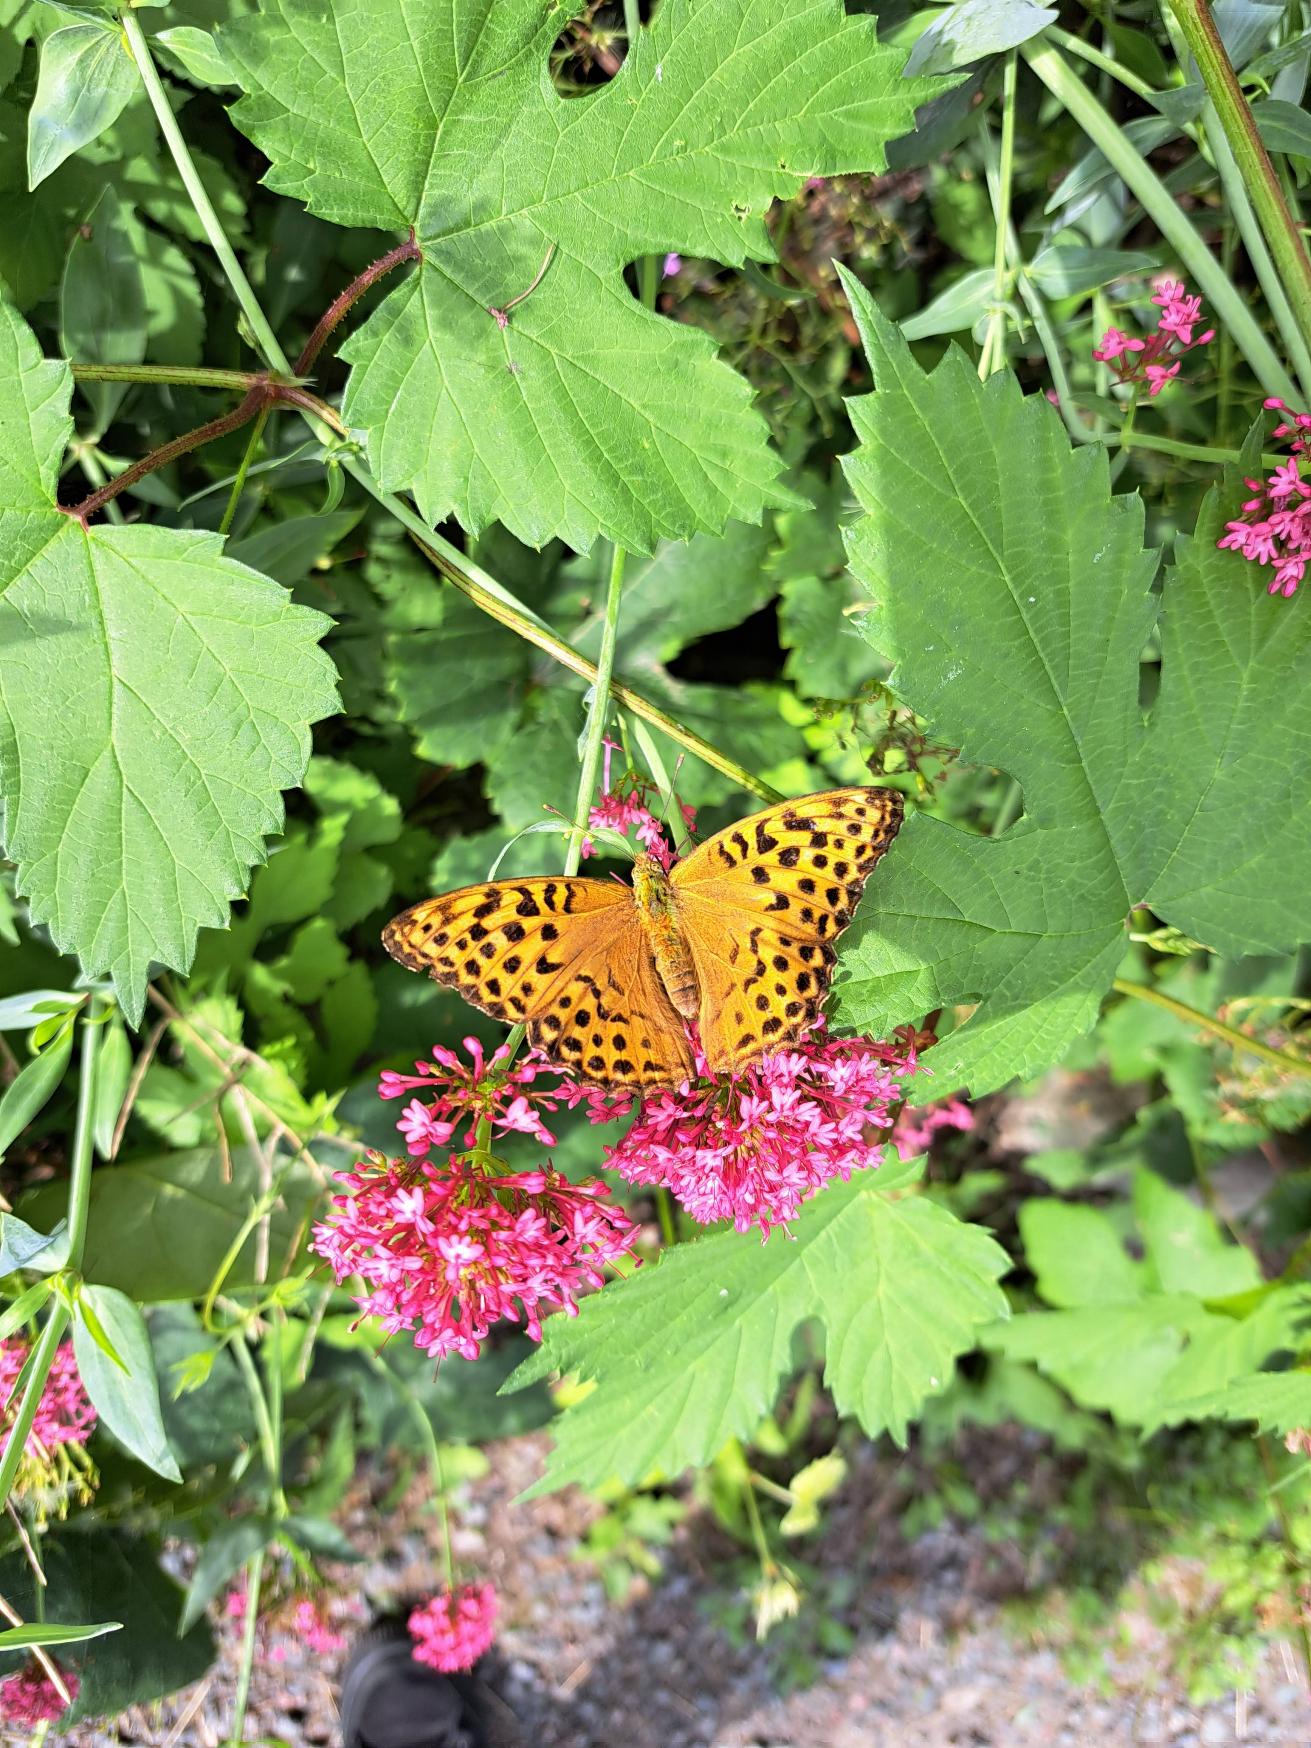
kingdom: Animalia
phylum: Arthropoda
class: Insecta
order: Lepidoptera
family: Nymphalidae
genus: Argynnis
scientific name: Argynnis paphia
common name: Kejserkåbe
